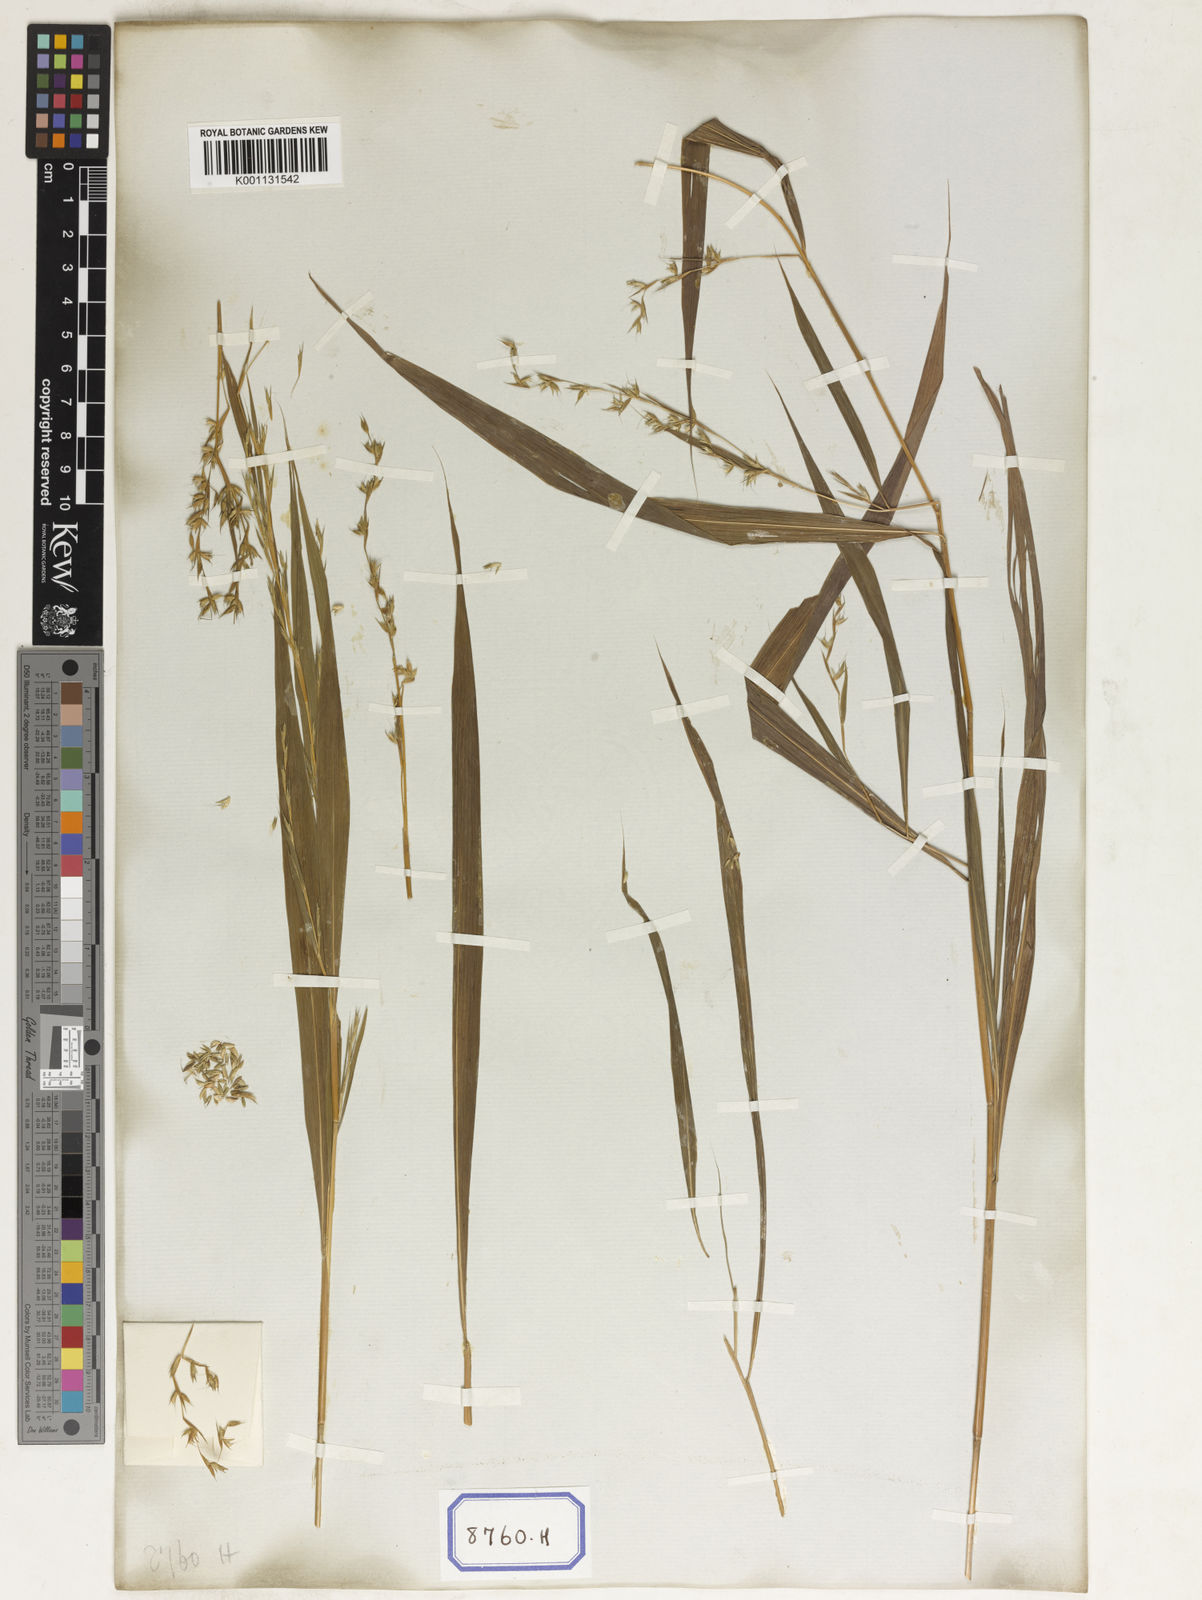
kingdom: Plantae
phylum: Tracheophyta
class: Liliopsida
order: Poales
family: Poaceae
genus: Apluda
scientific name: Apluda
